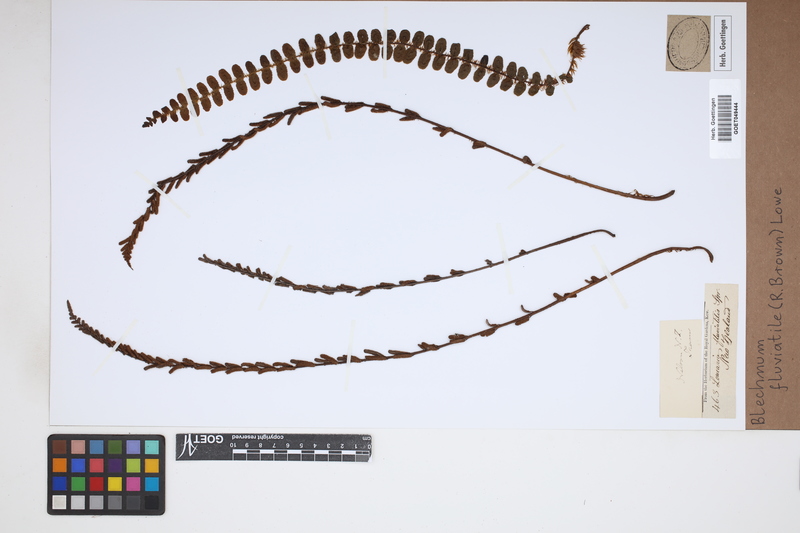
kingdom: Plantae
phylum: Tracheophyta
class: Polypodiopsida
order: Polypodiales
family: Blechnaceae
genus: Cranfillia
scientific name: Cranfillia fluviatilis
